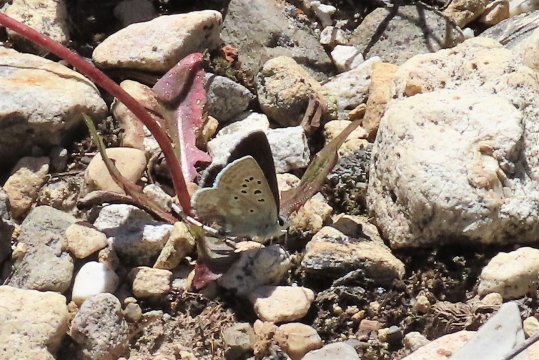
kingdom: Animalia
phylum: Arthropoda
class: Insecta
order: Lepidoptera
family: Lycaenidae
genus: Agriades
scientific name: Agriades glandon
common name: Arctic Blue
